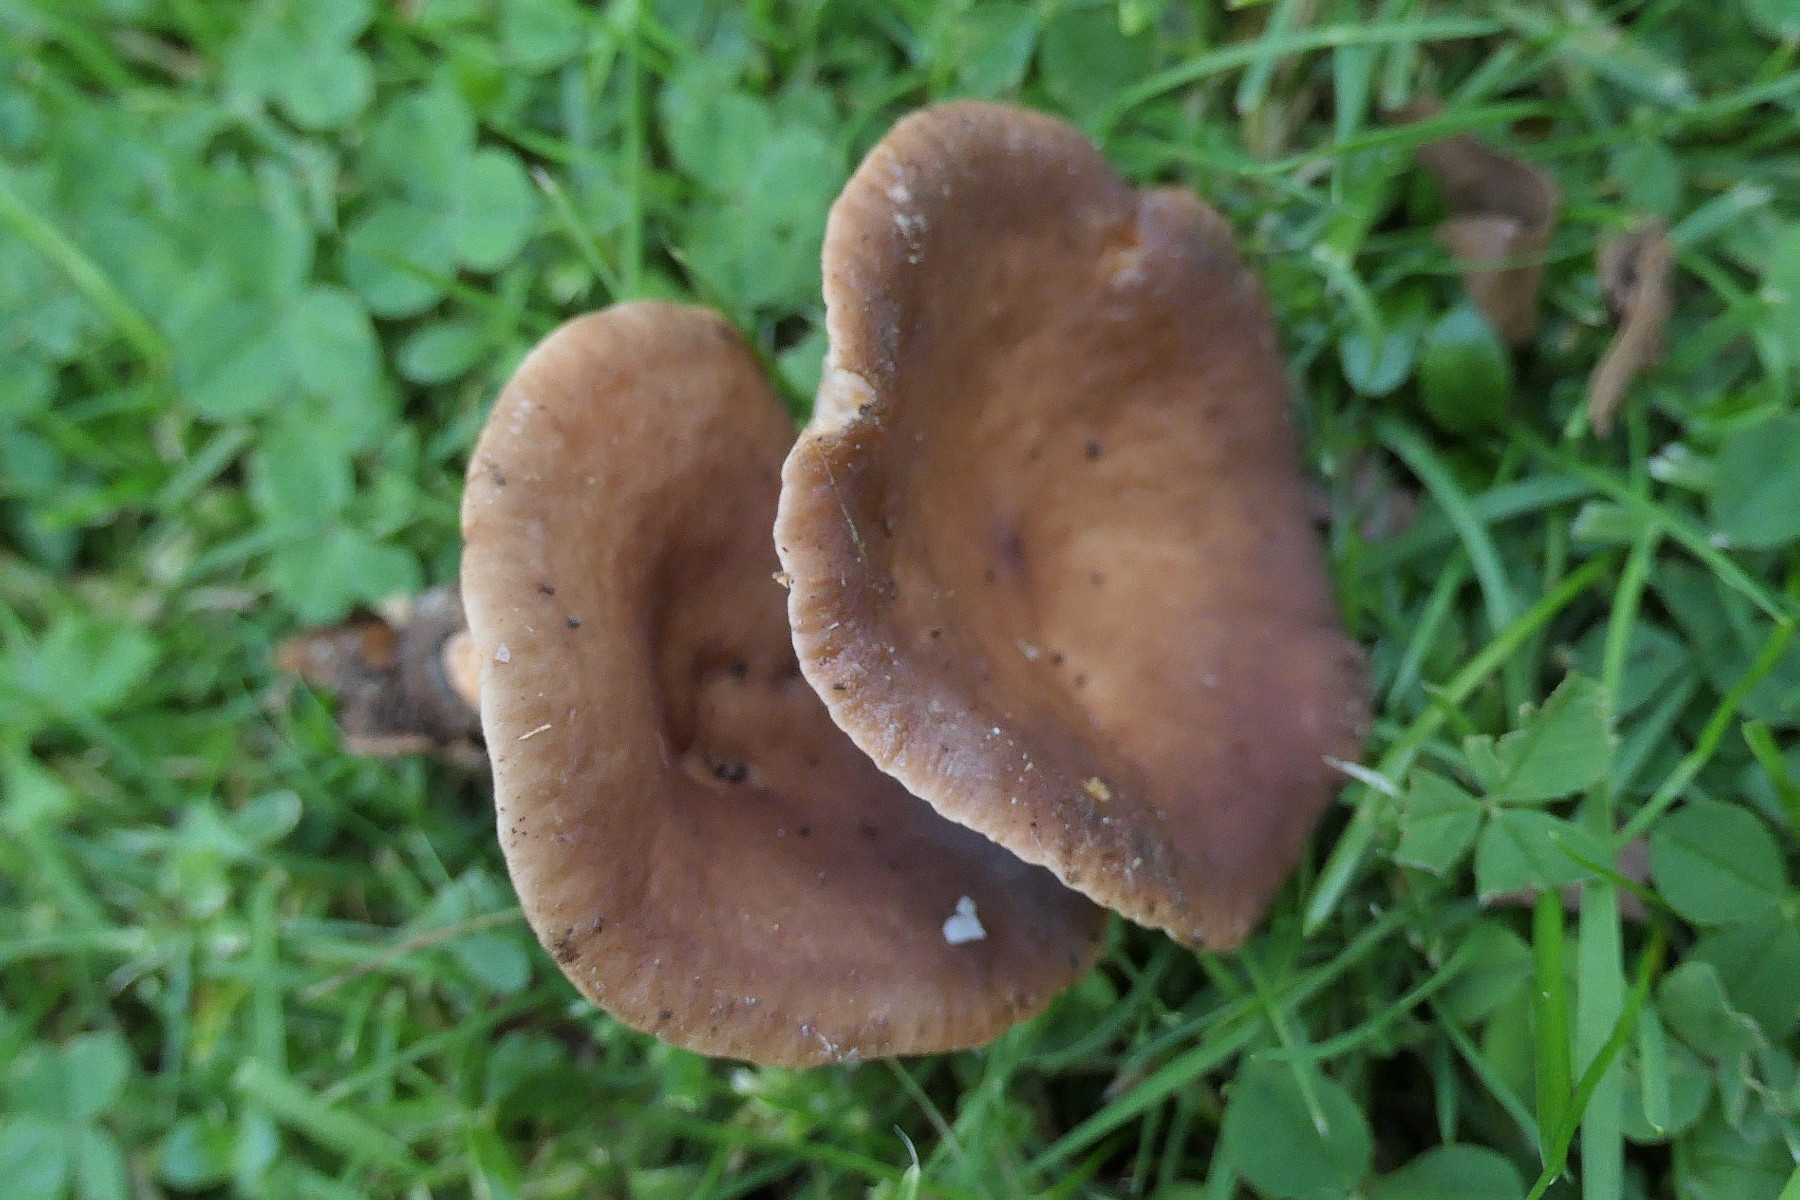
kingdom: Fungi
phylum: Basidiomycota
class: Agaricomycetes
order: Russulales
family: Russulaceae
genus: Lactarius
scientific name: Lactarius subdulcis
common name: sødlig mælkehat
